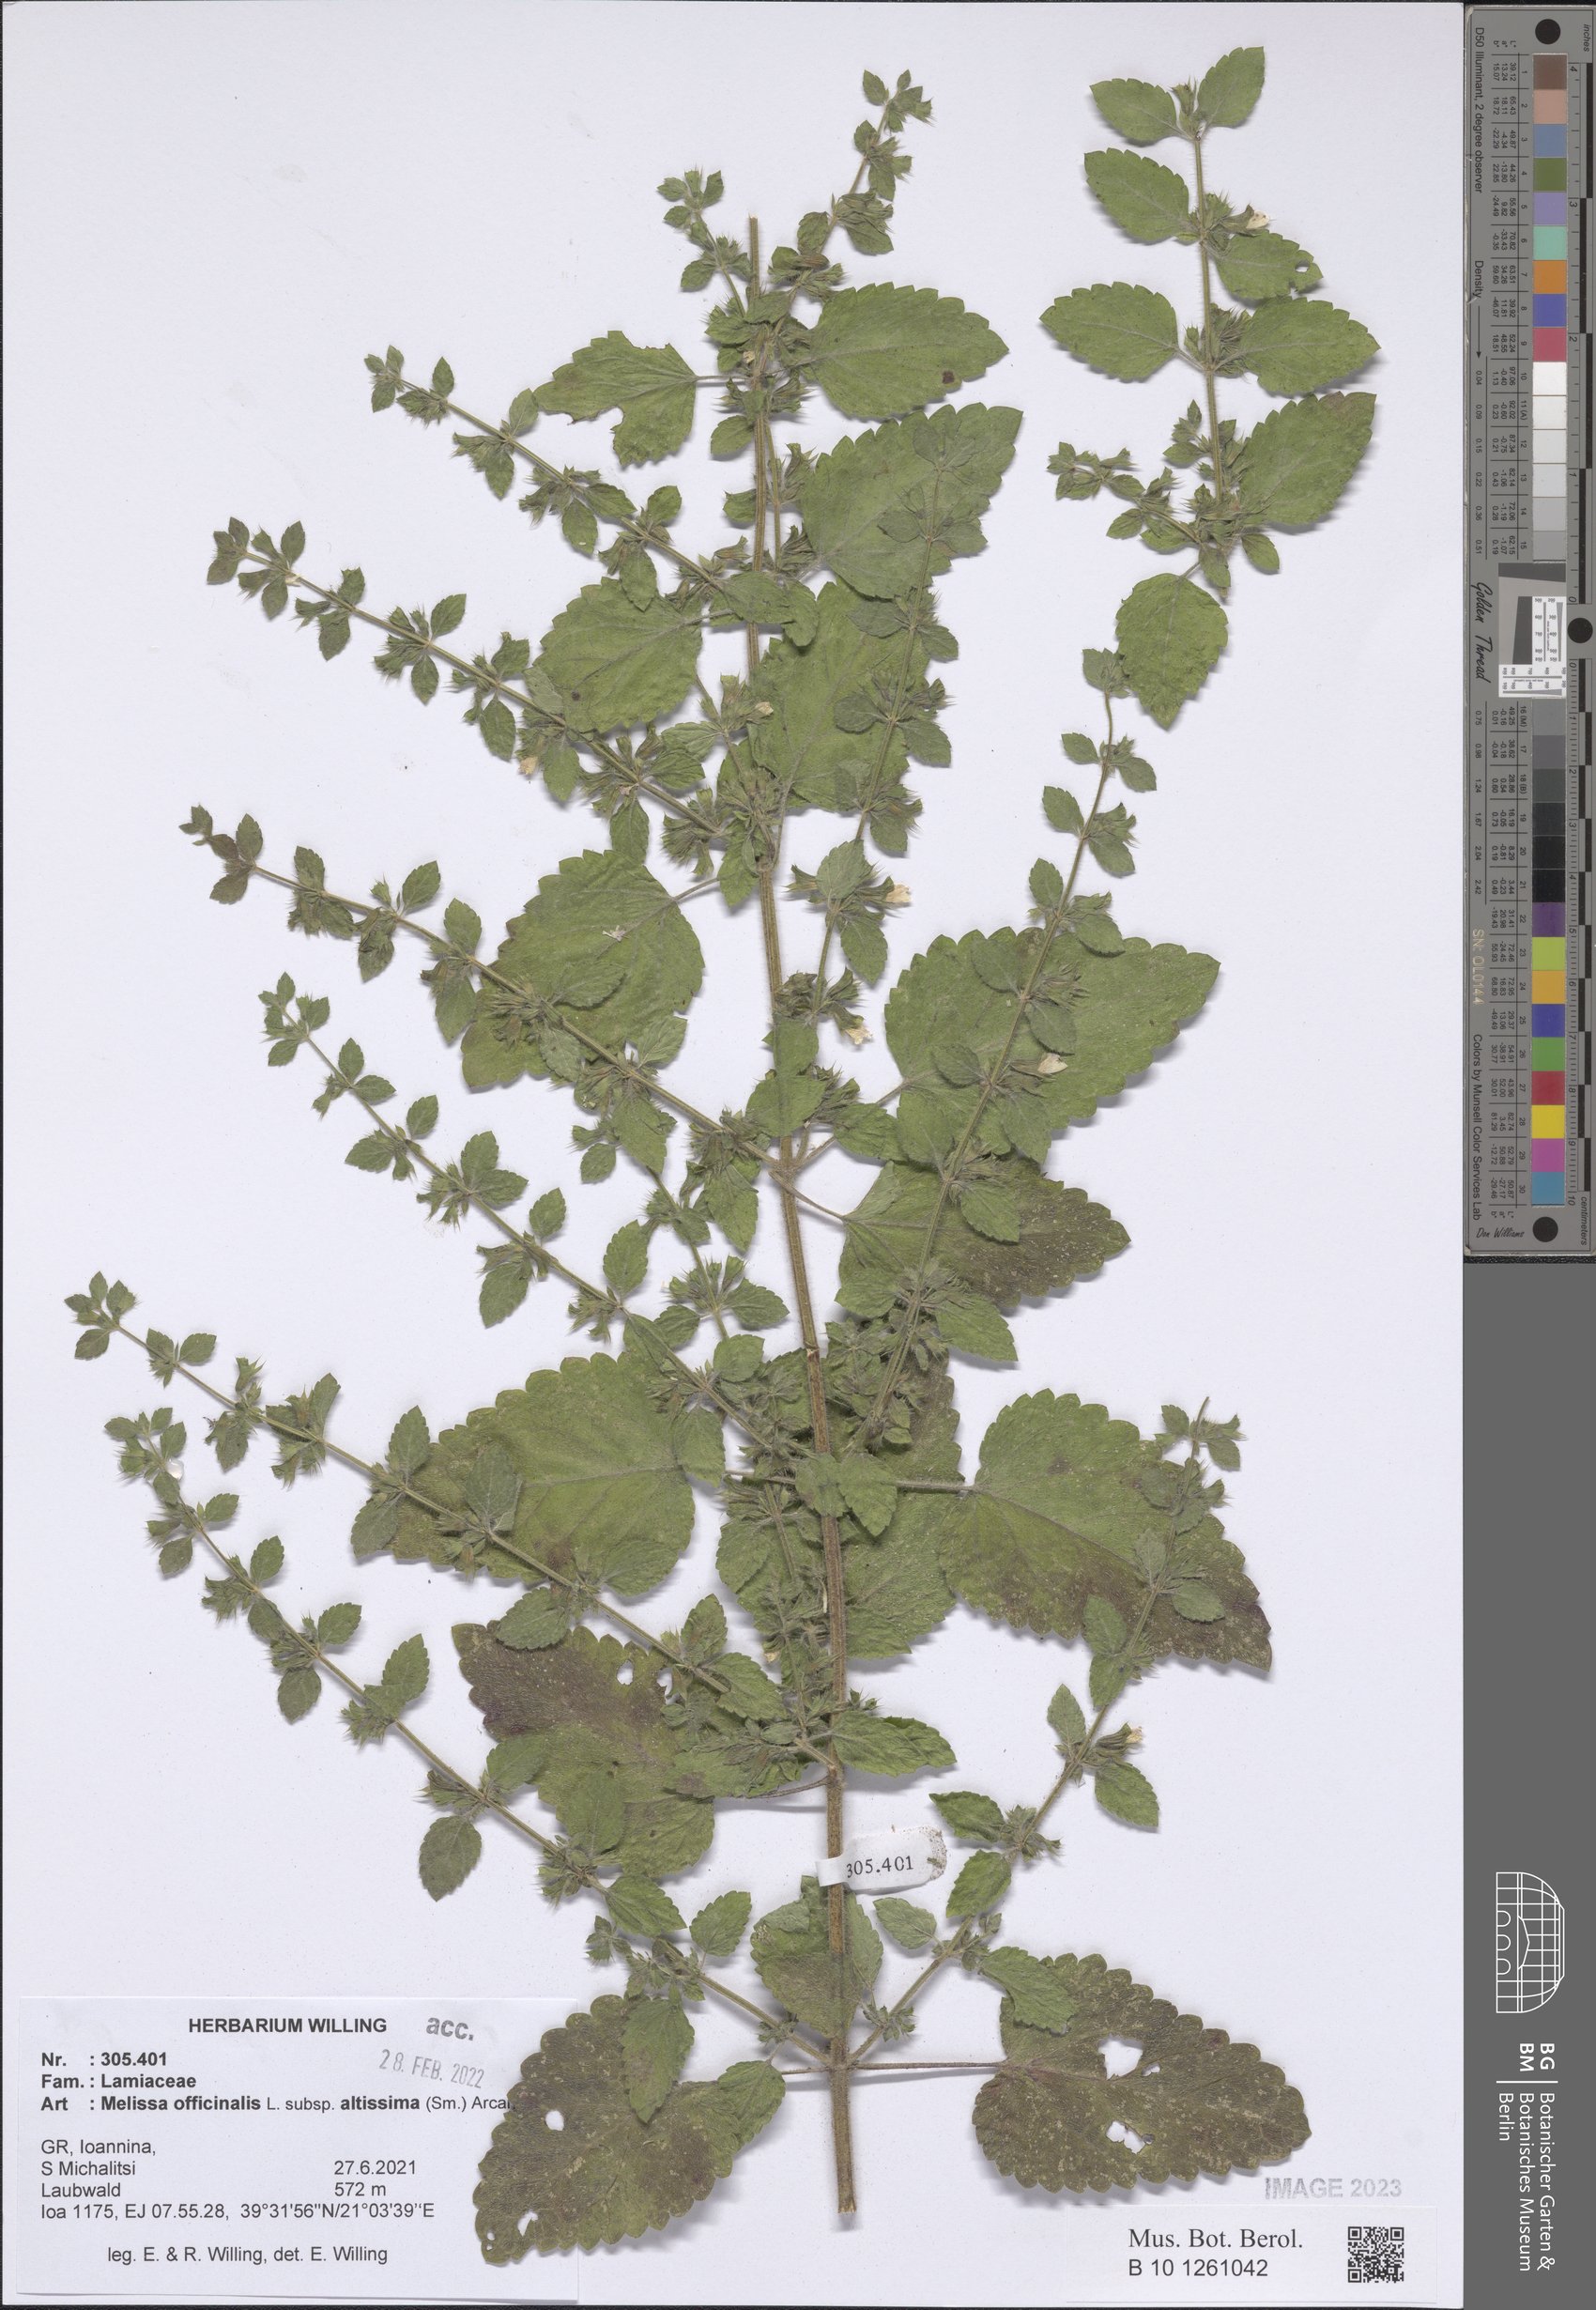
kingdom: Plantae
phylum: Tracheophyta
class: Magnoliopsida
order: Lamiales
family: Lamiaceae
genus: Melissa
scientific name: Melissa officinalis
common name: Balm
